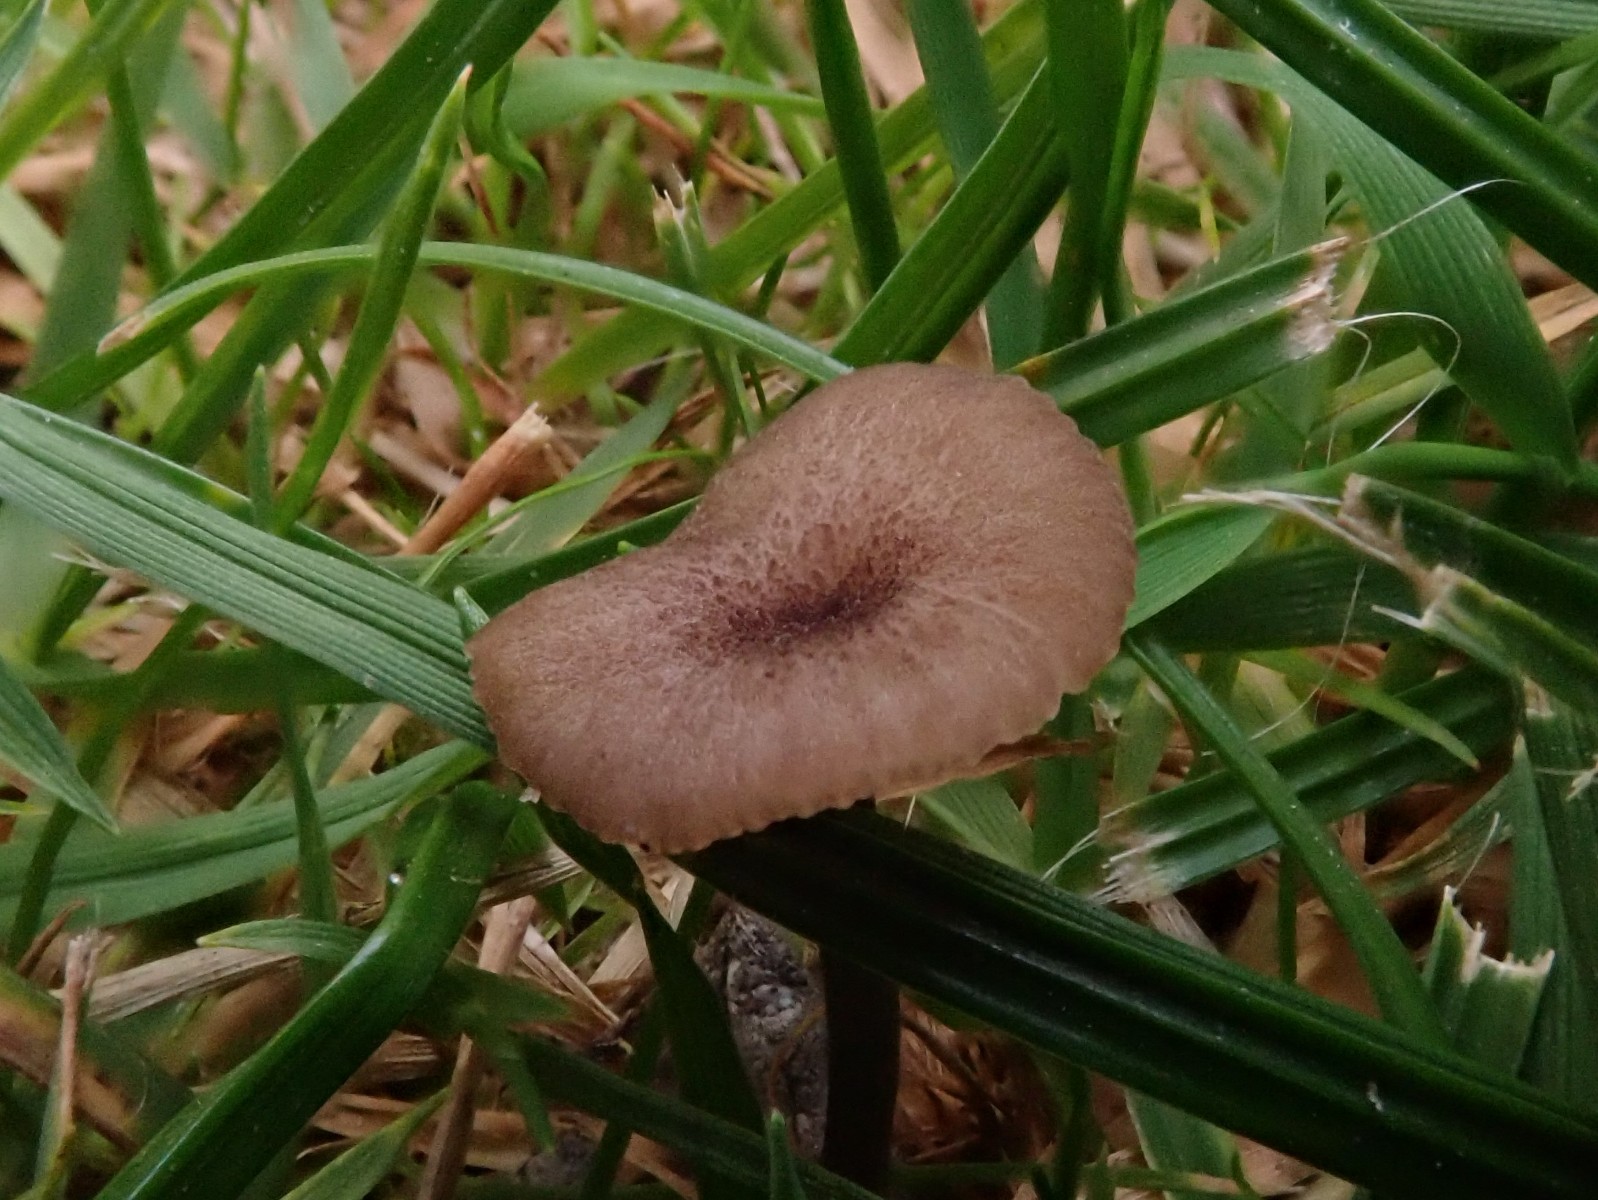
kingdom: Fungi
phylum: Basidiomycota
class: Agaricomycetes
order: Agaricales
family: Entolomataceae
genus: Entoloma
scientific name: Entoloma incarnatofuscescens
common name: tragt-rødblad
